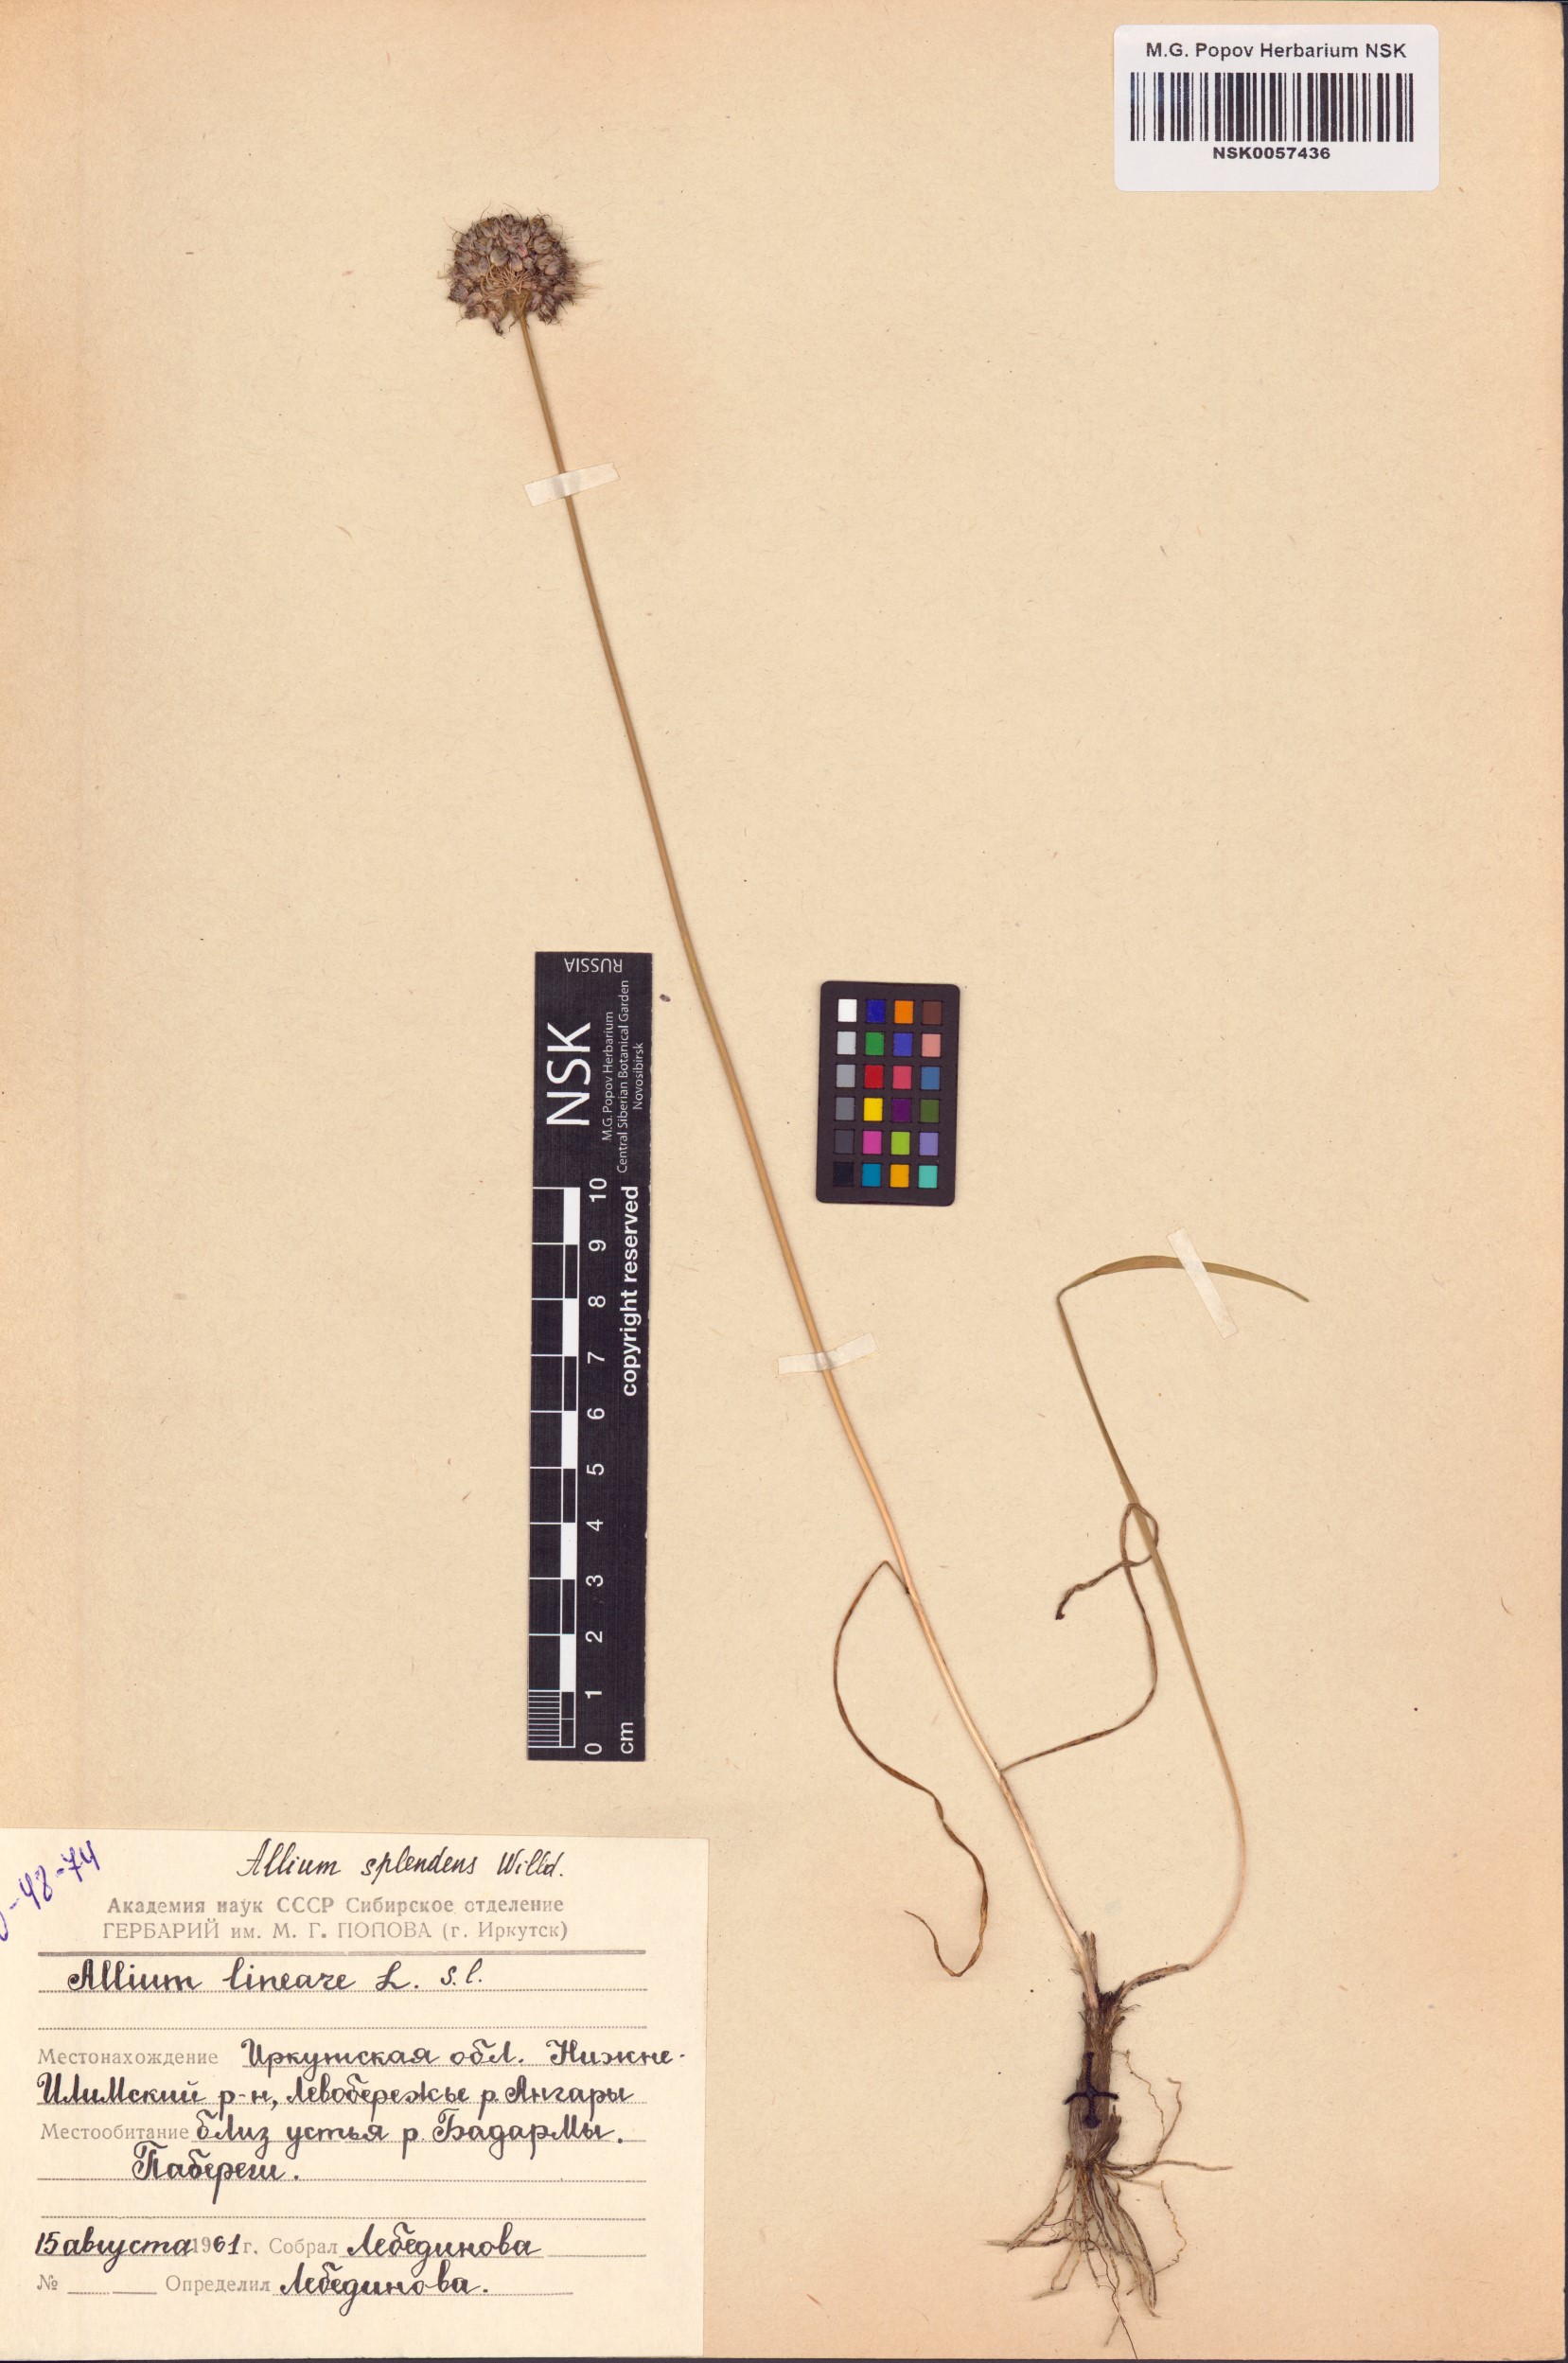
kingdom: Plantae
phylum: Tracheophyta
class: Liliopsida
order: Asparagales
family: Amaryllidaceae
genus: Allium
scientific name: Allium splendens
